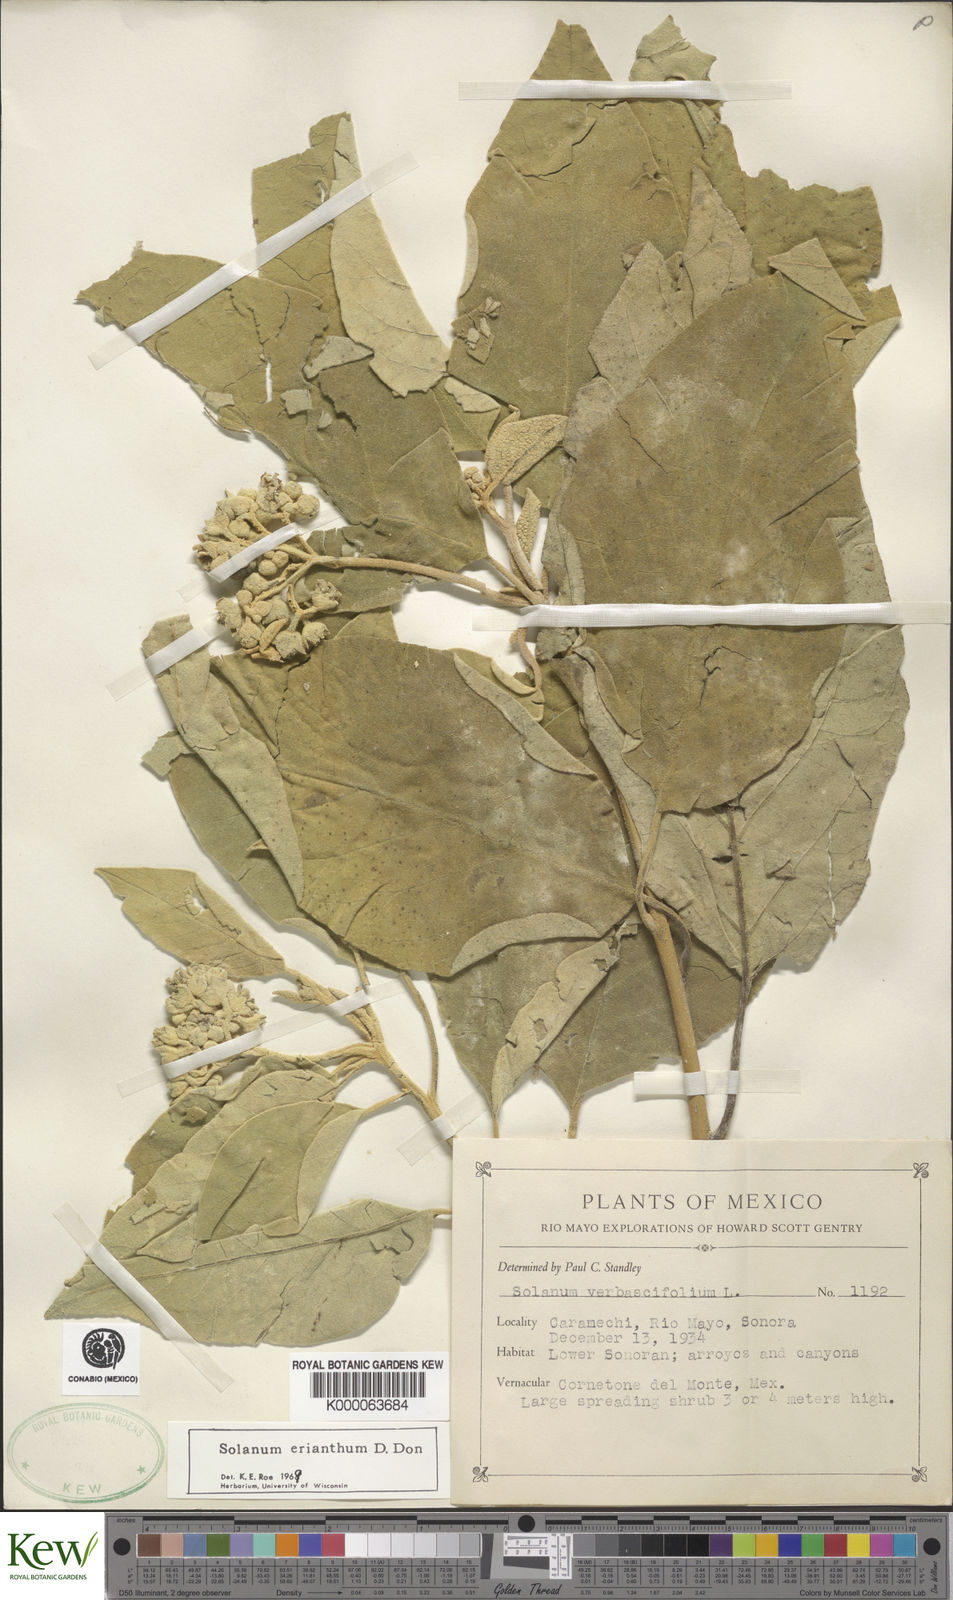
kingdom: Plantae
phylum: Tracheophyta
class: Magnoliopsida
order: Solanales
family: Solanaceae
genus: Solanum
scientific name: Solanum erianthum
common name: Tobacco-tree
